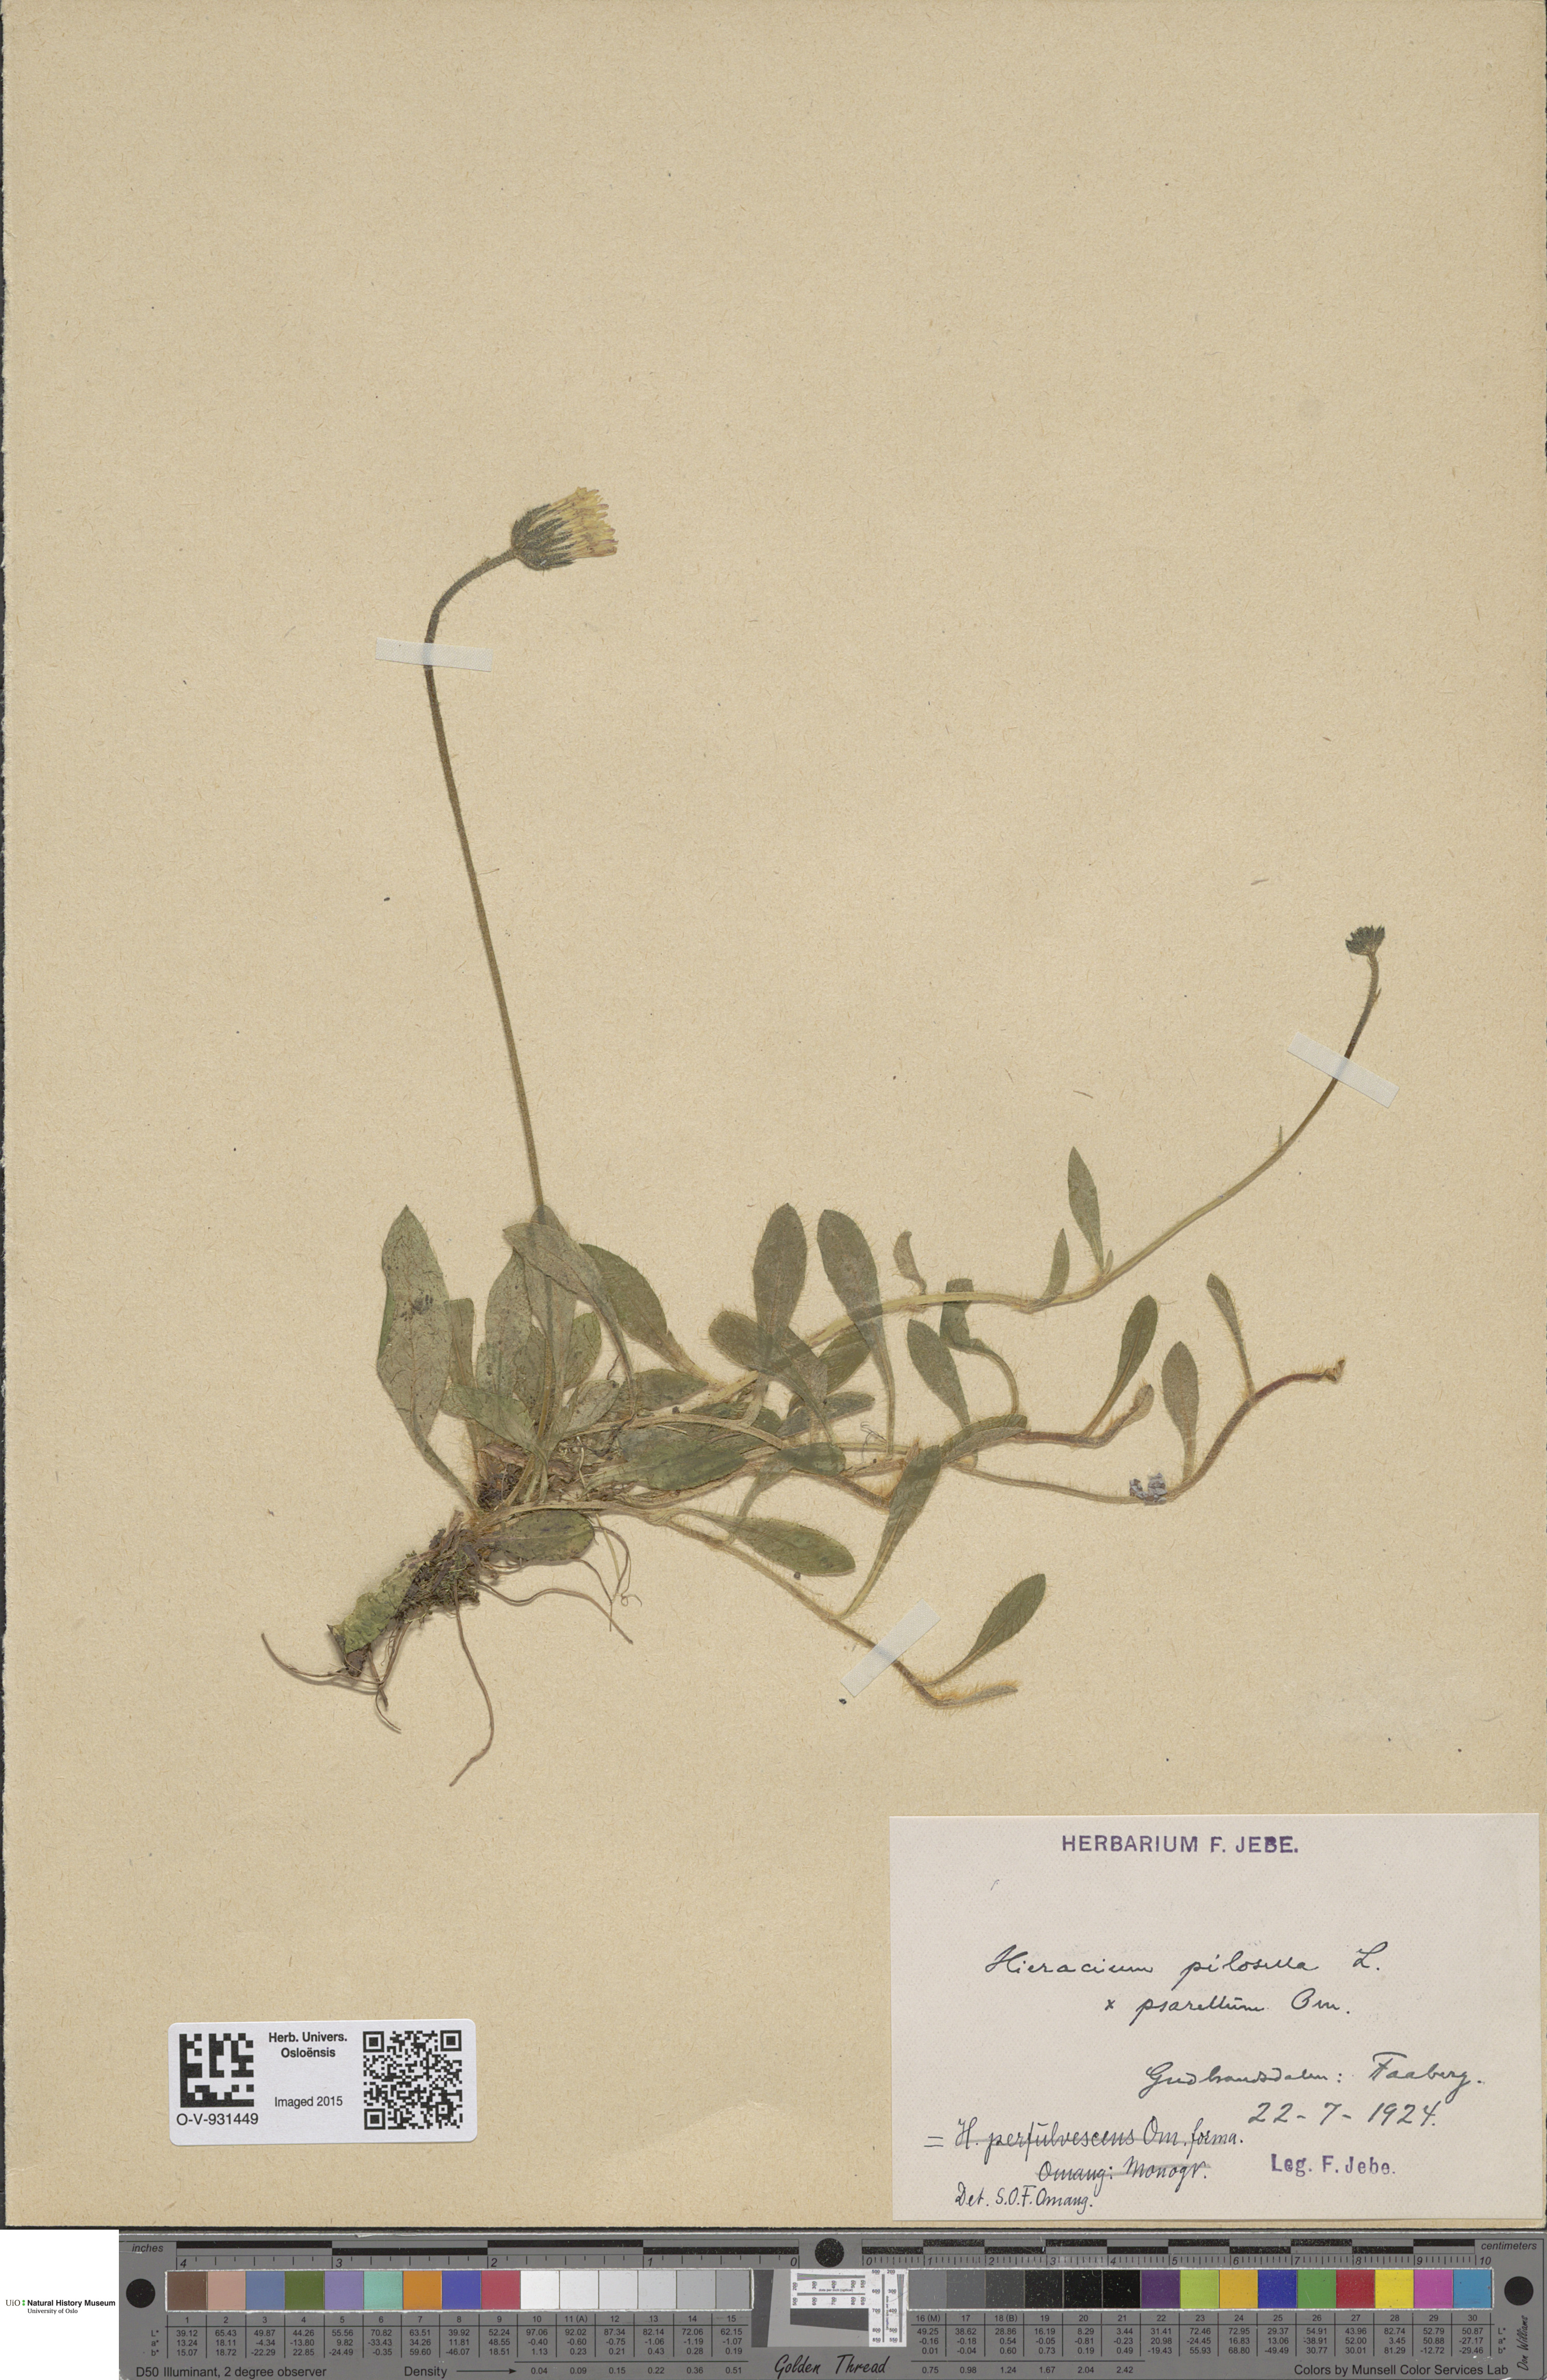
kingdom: Plantae
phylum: Tracheophyta
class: Magnoliopsida
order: Asterales
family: Asteraceae
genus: Pilosella
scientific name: Pilosella officinarum
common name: Mouse-ear hawkweed
